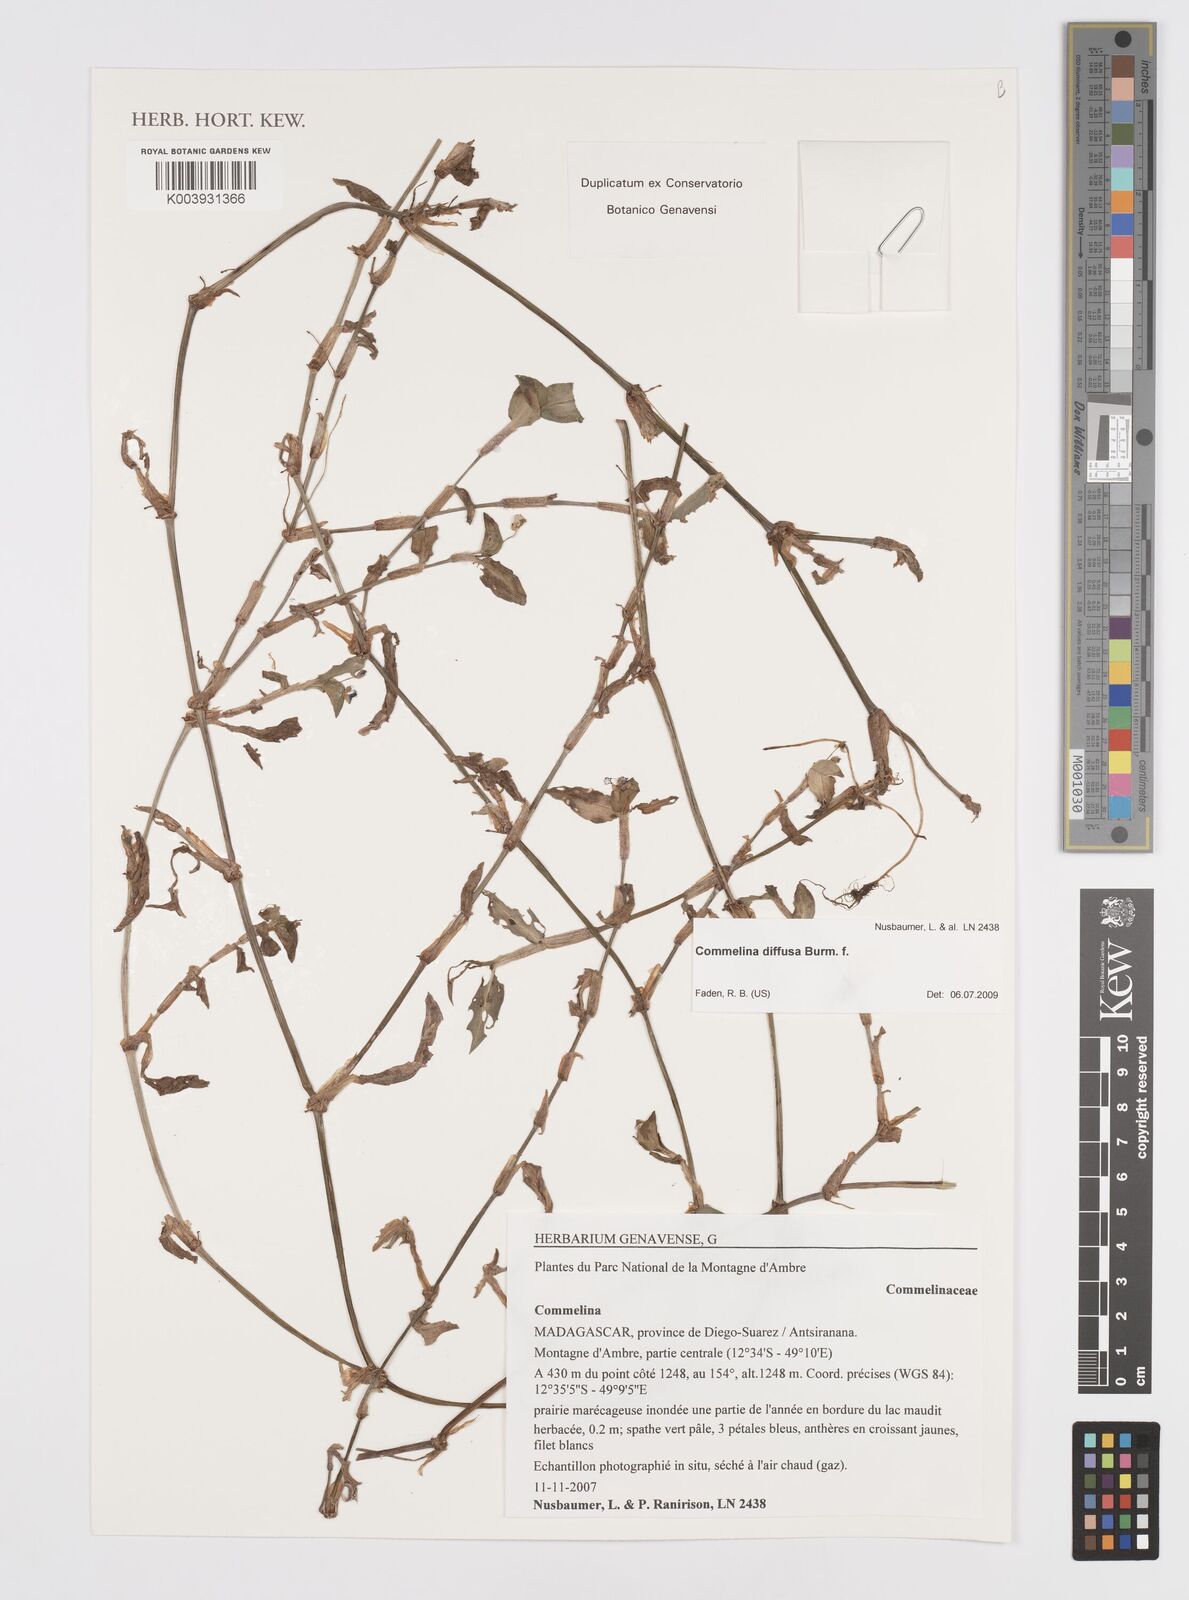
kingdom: Plantae
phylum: Tracheophyta
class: Liliopsida
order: Commelinales
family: Commelinaceae
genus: Commelina
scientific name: Commelina diffusa
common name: Climbing dayflower
